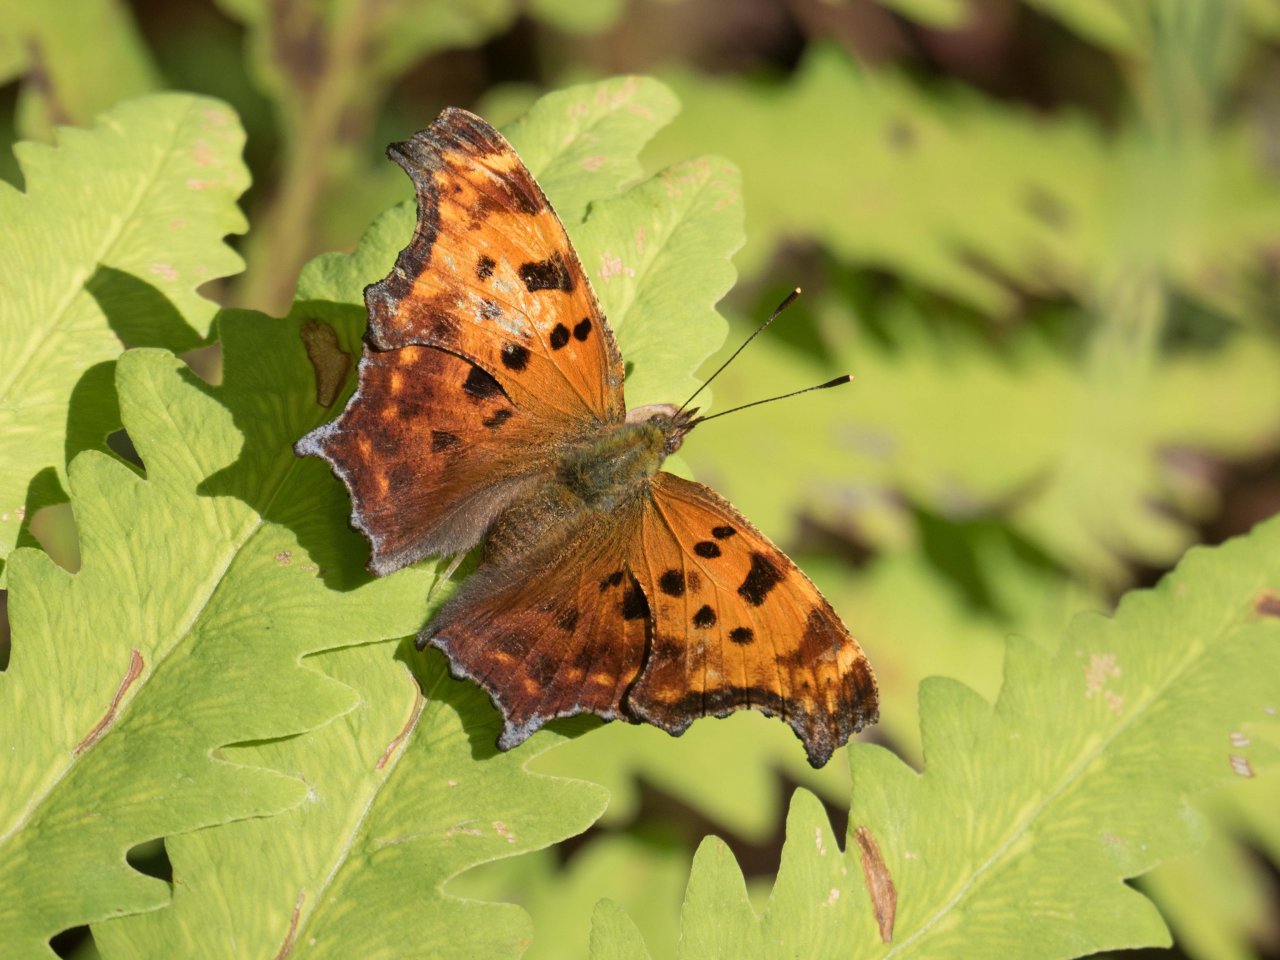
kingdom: Animalia
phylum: Arthropoda
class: Insecta
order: Lepidoptera
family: Nymphalidae
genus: Polygonia
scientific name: Polygonia comma
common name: Eastern Comma
